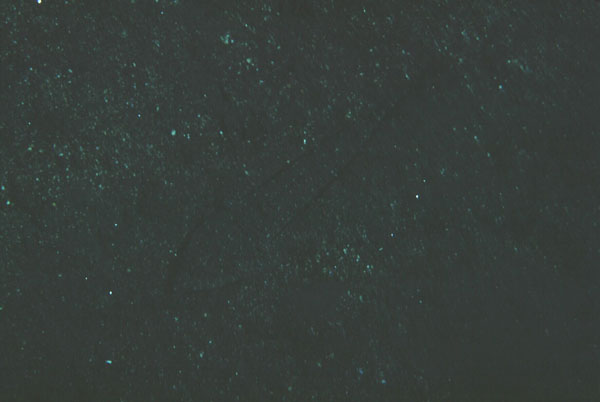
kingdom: Animalia
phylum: Chordata
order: Perciformes
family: Callionymidae
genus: Callionymus
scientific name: Callionymus
